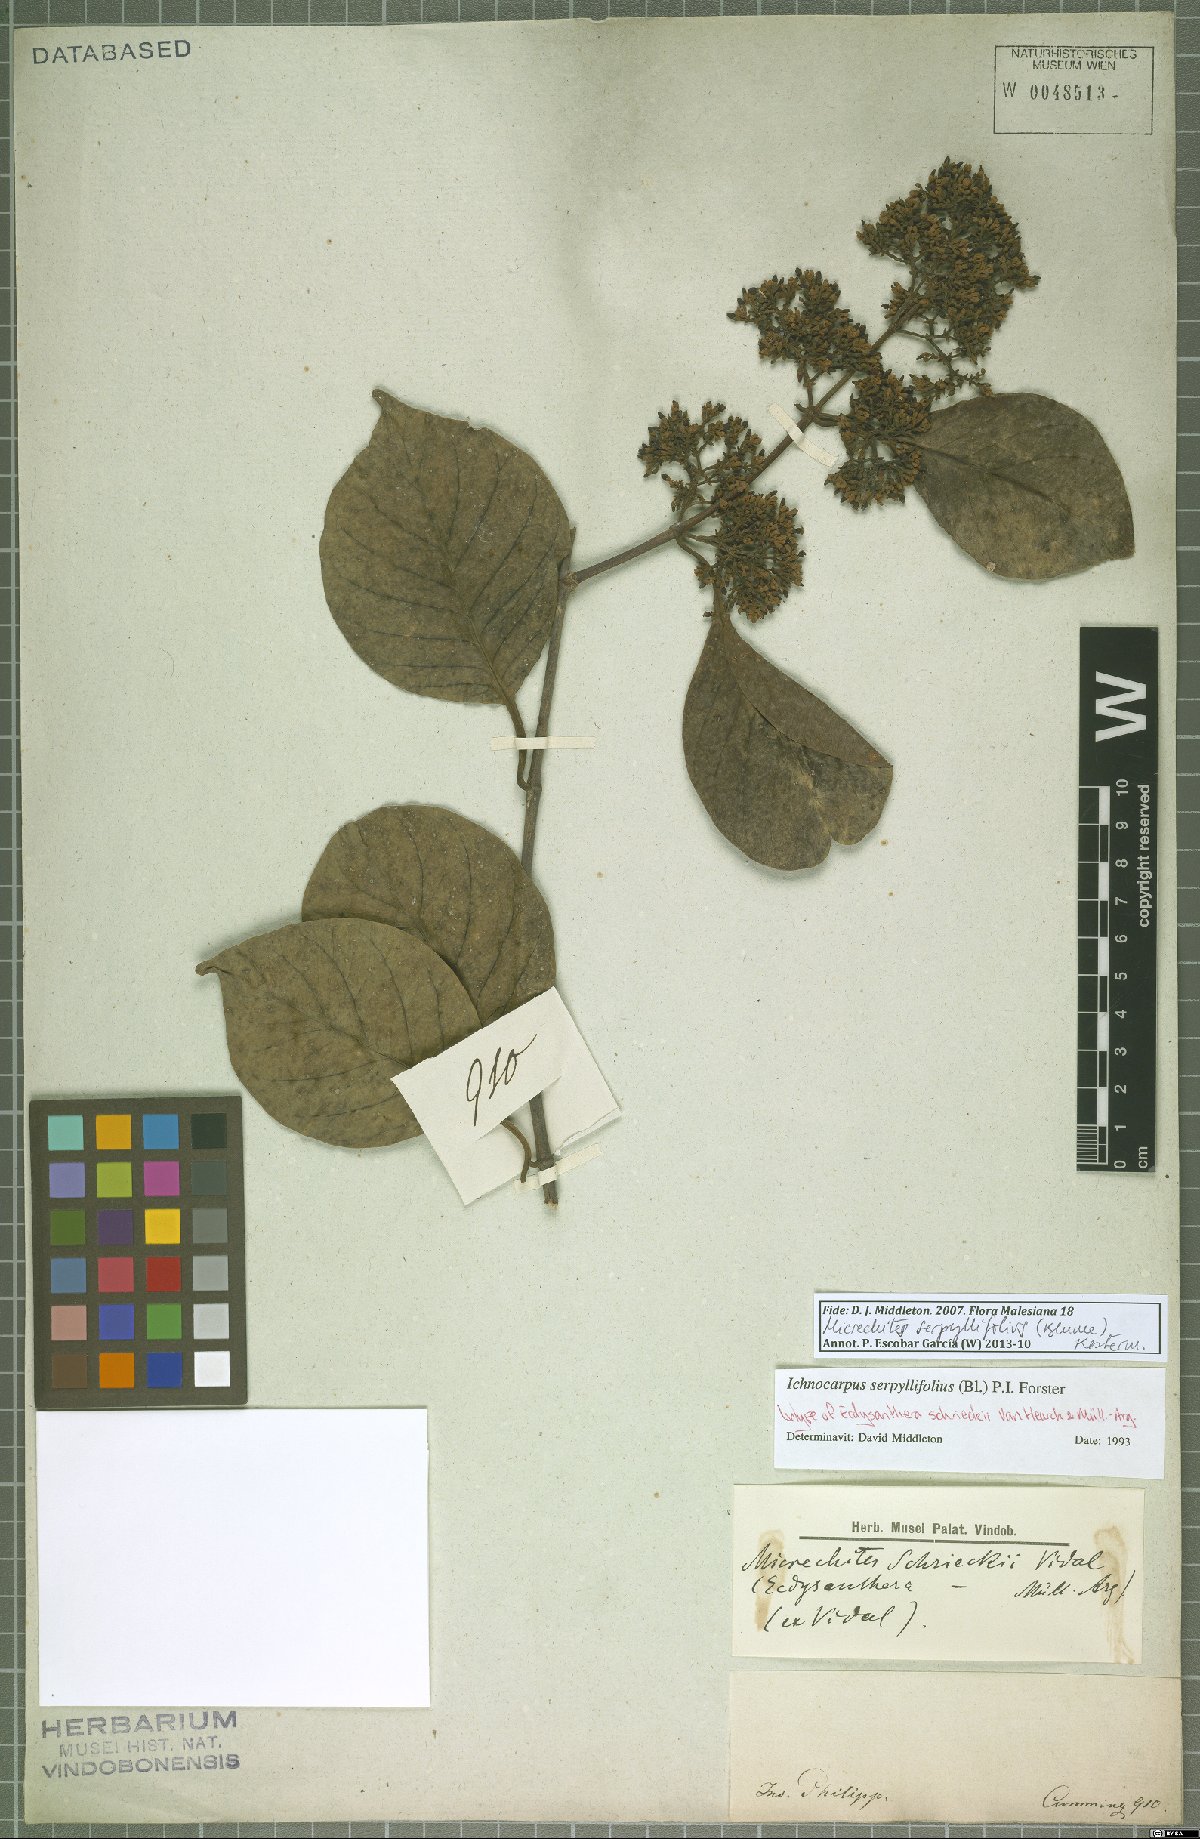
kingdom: Plantae
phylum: Tracheophyta
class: Magnoliopsida
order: Gentianales
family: Apocynaceae
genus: Micrechites
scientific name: Micrechites serpyllifolia
